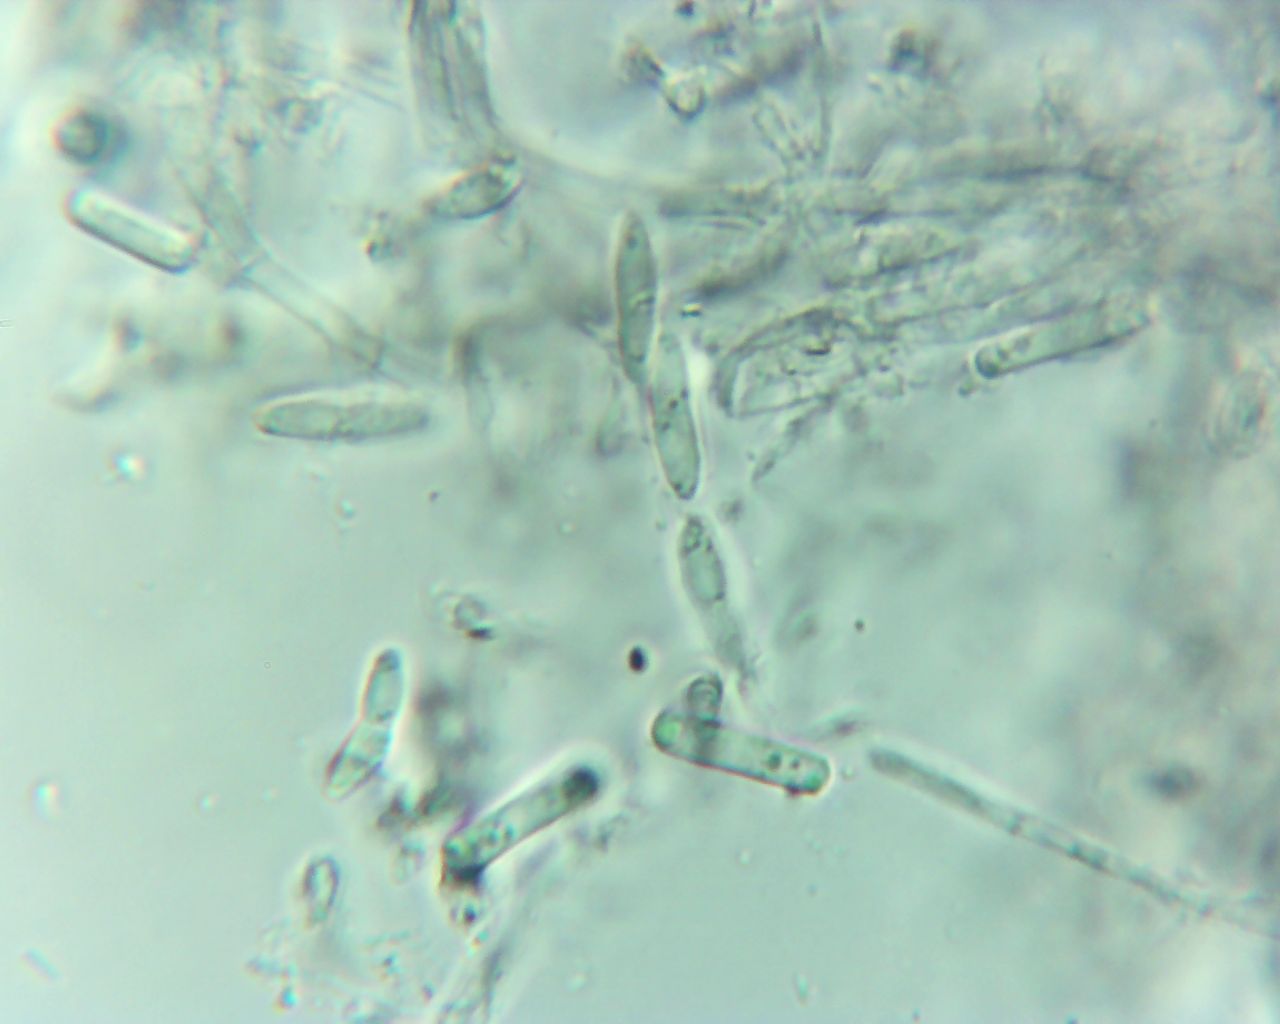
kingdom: Fungi
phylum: Ascomycota
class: Sordariomycetes
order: Microascales
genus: Chalara
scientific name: Chalara
